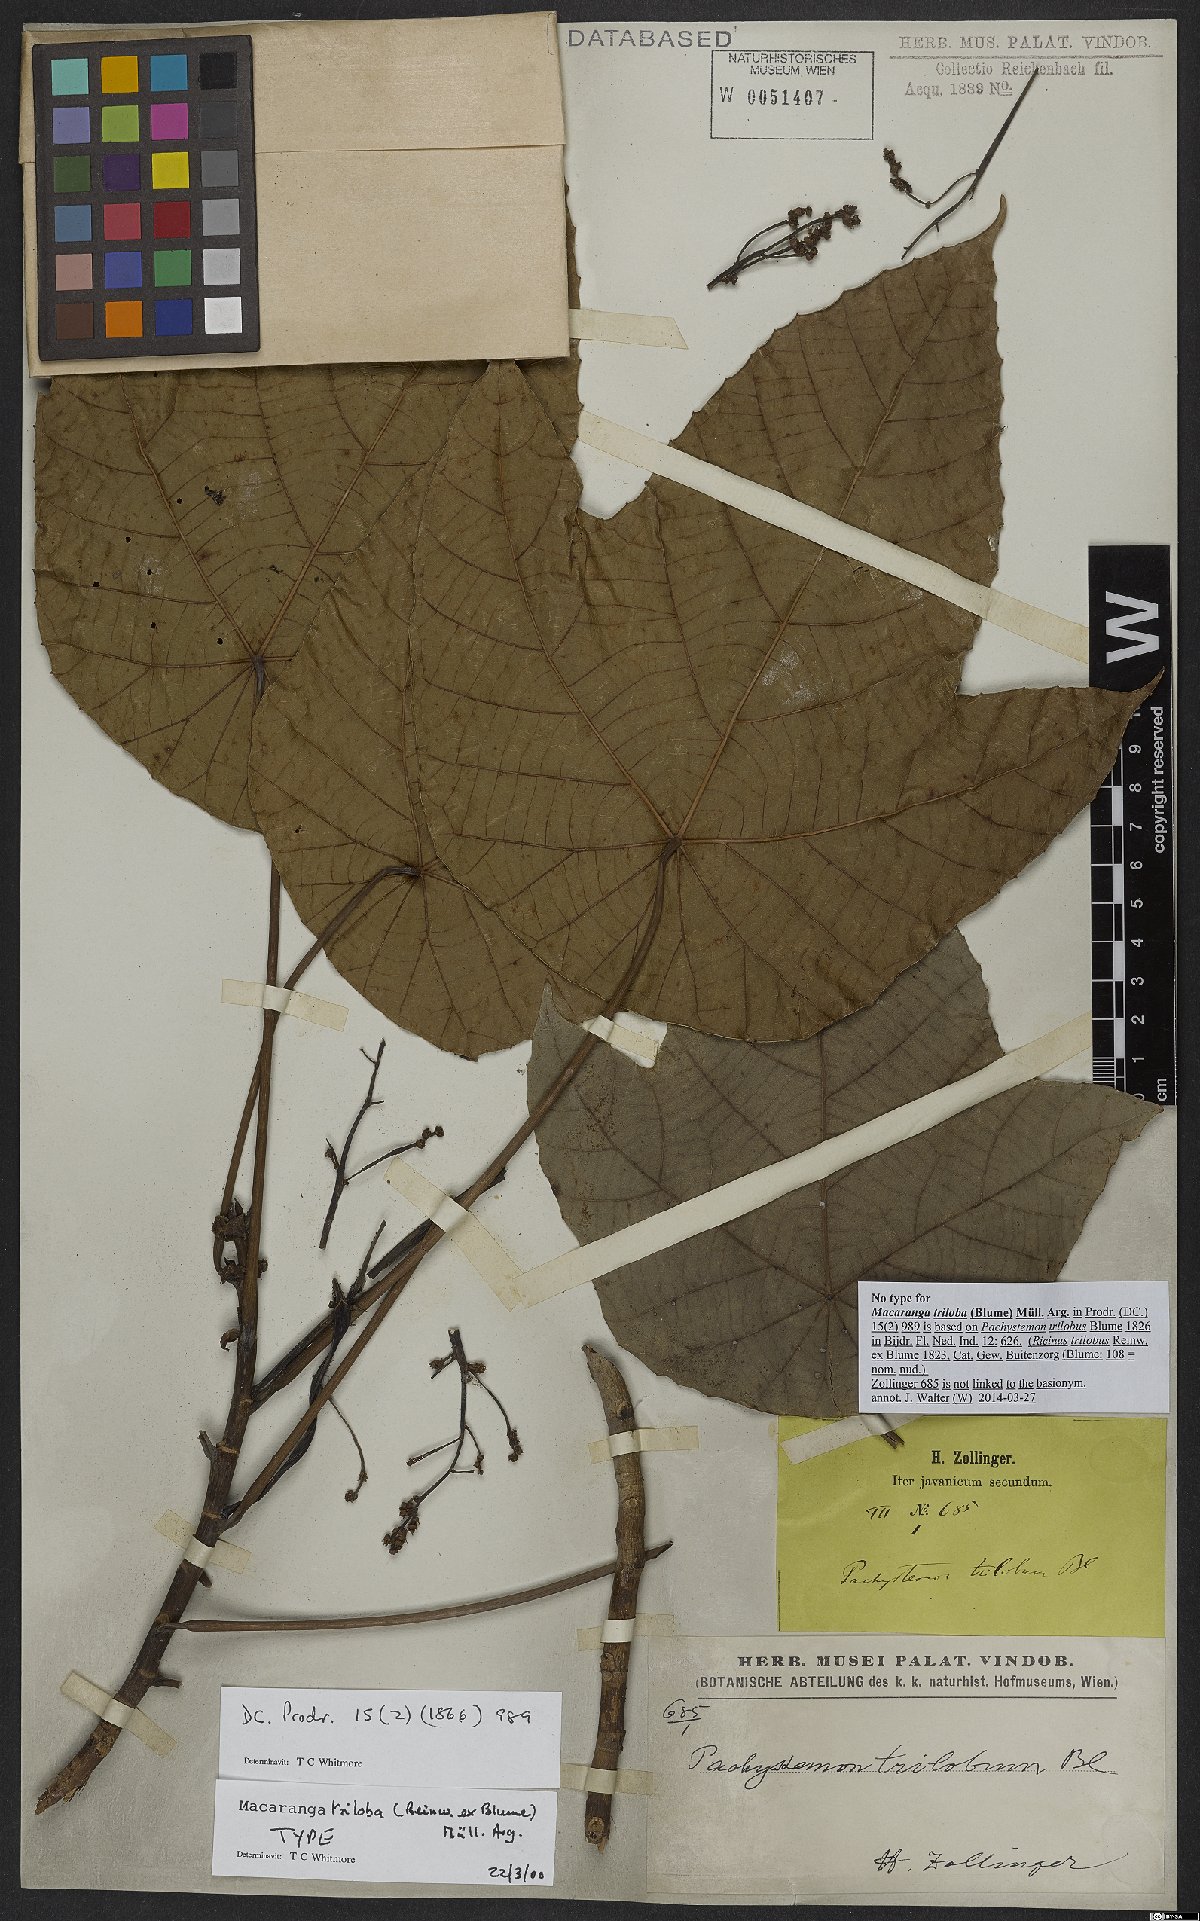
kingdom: Plantae
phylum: Tracheophyta
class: Magnoliopsida
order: Malpighiales
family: Euphorbiaceae
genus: Macaranga
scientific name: Macaranga triloba
